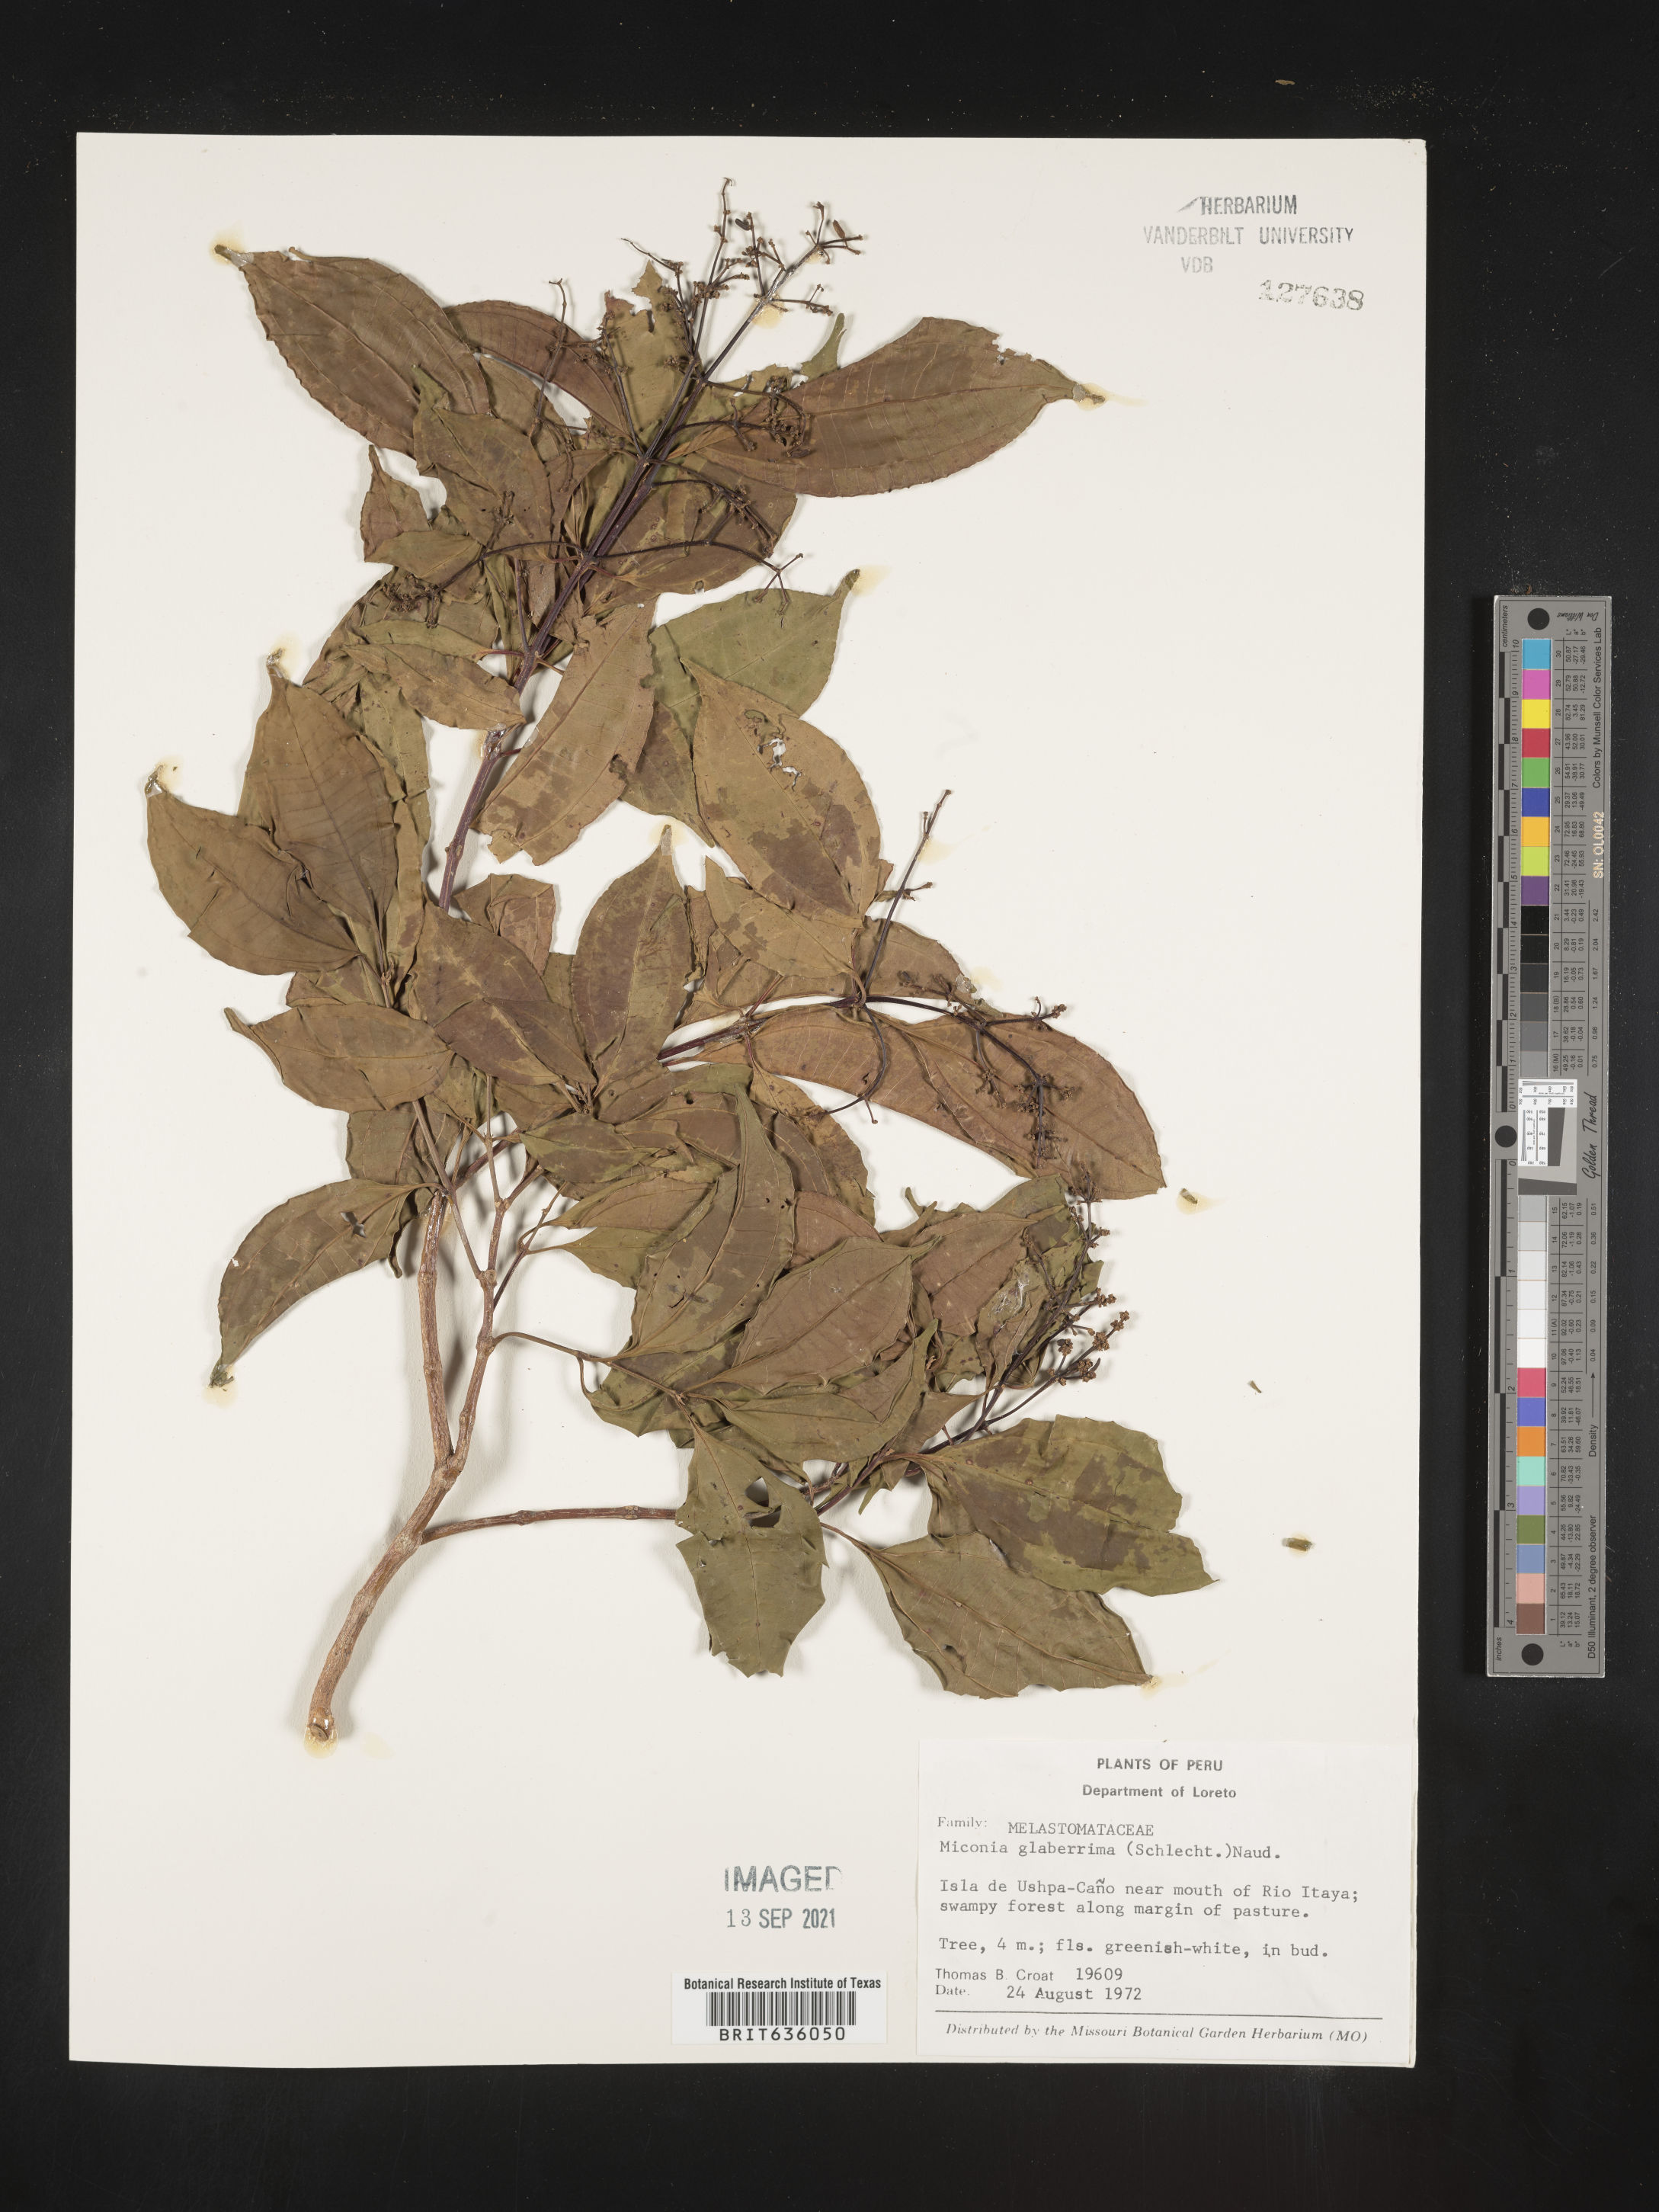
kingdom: Plantae
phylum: Tracheophyta
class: Magnoliopsida
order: Myrtales
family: Melastomataceae
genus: Miconia
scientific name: Miconia
